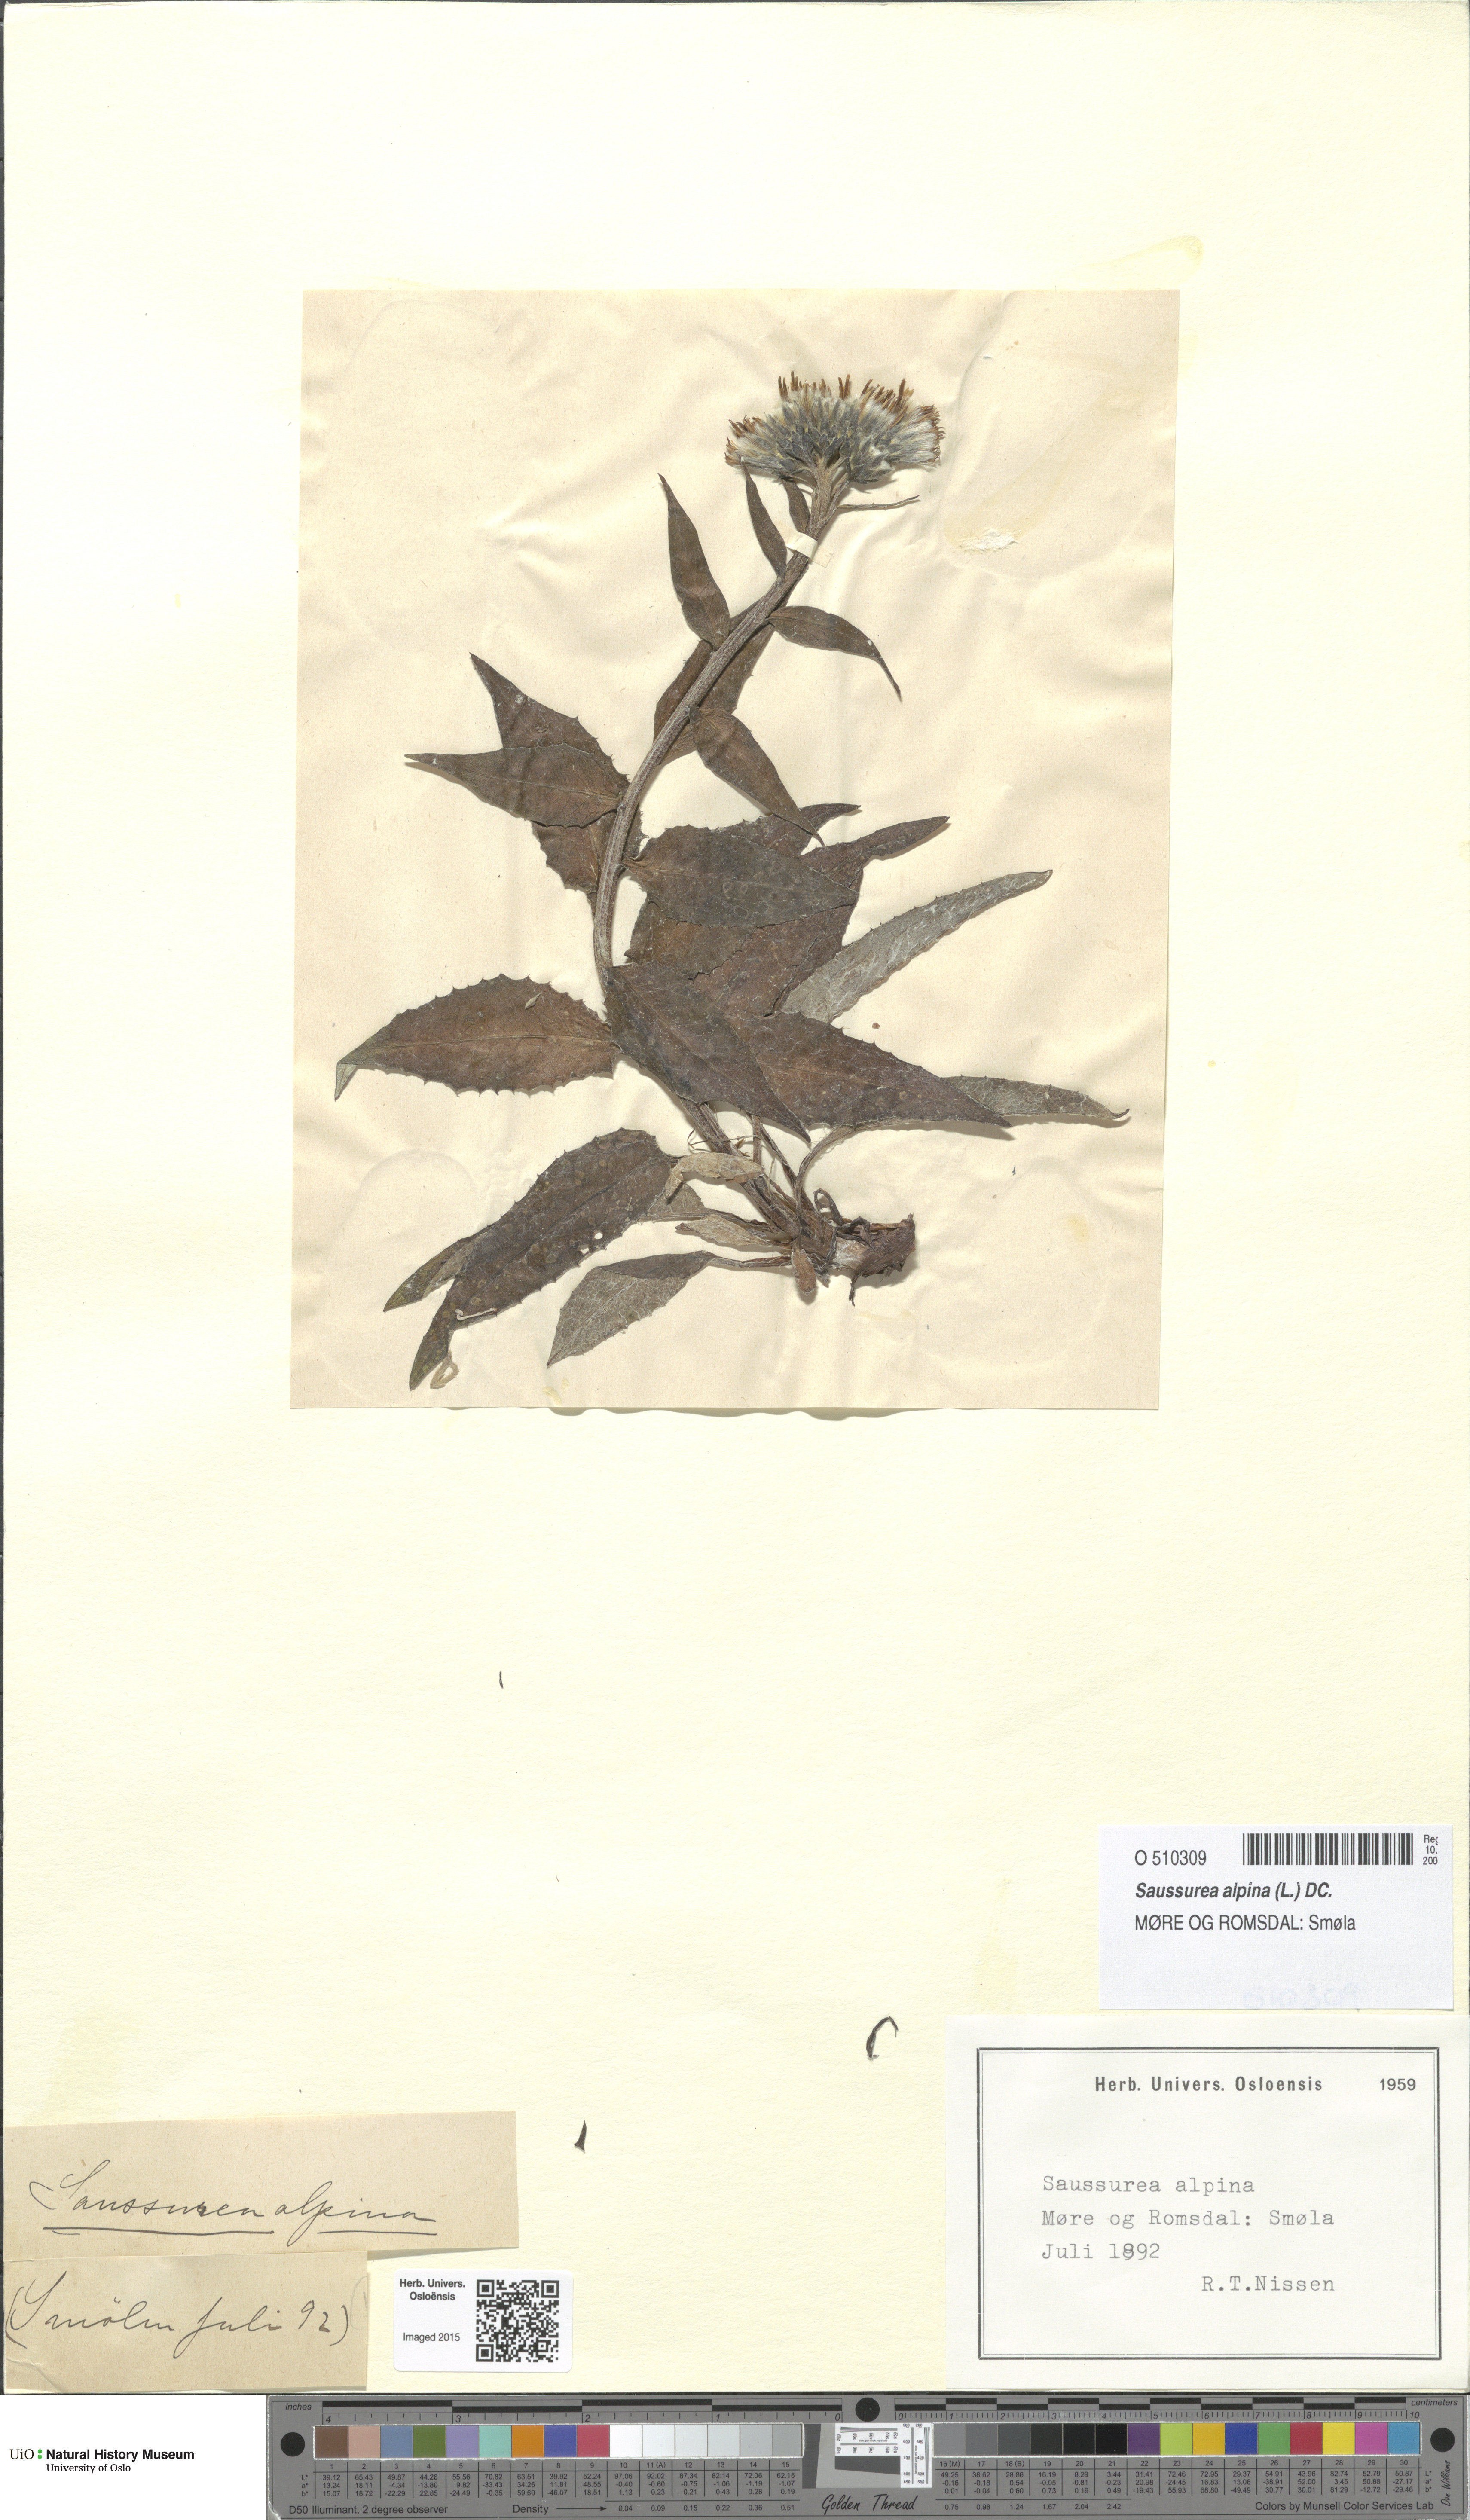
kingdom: Plantae
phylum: Tracheophyta
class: Magnoliopsida
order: Asterales
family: Asteraceae
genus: Saussurea
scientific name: Saussurea alpina
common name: Alpine saw-wort
